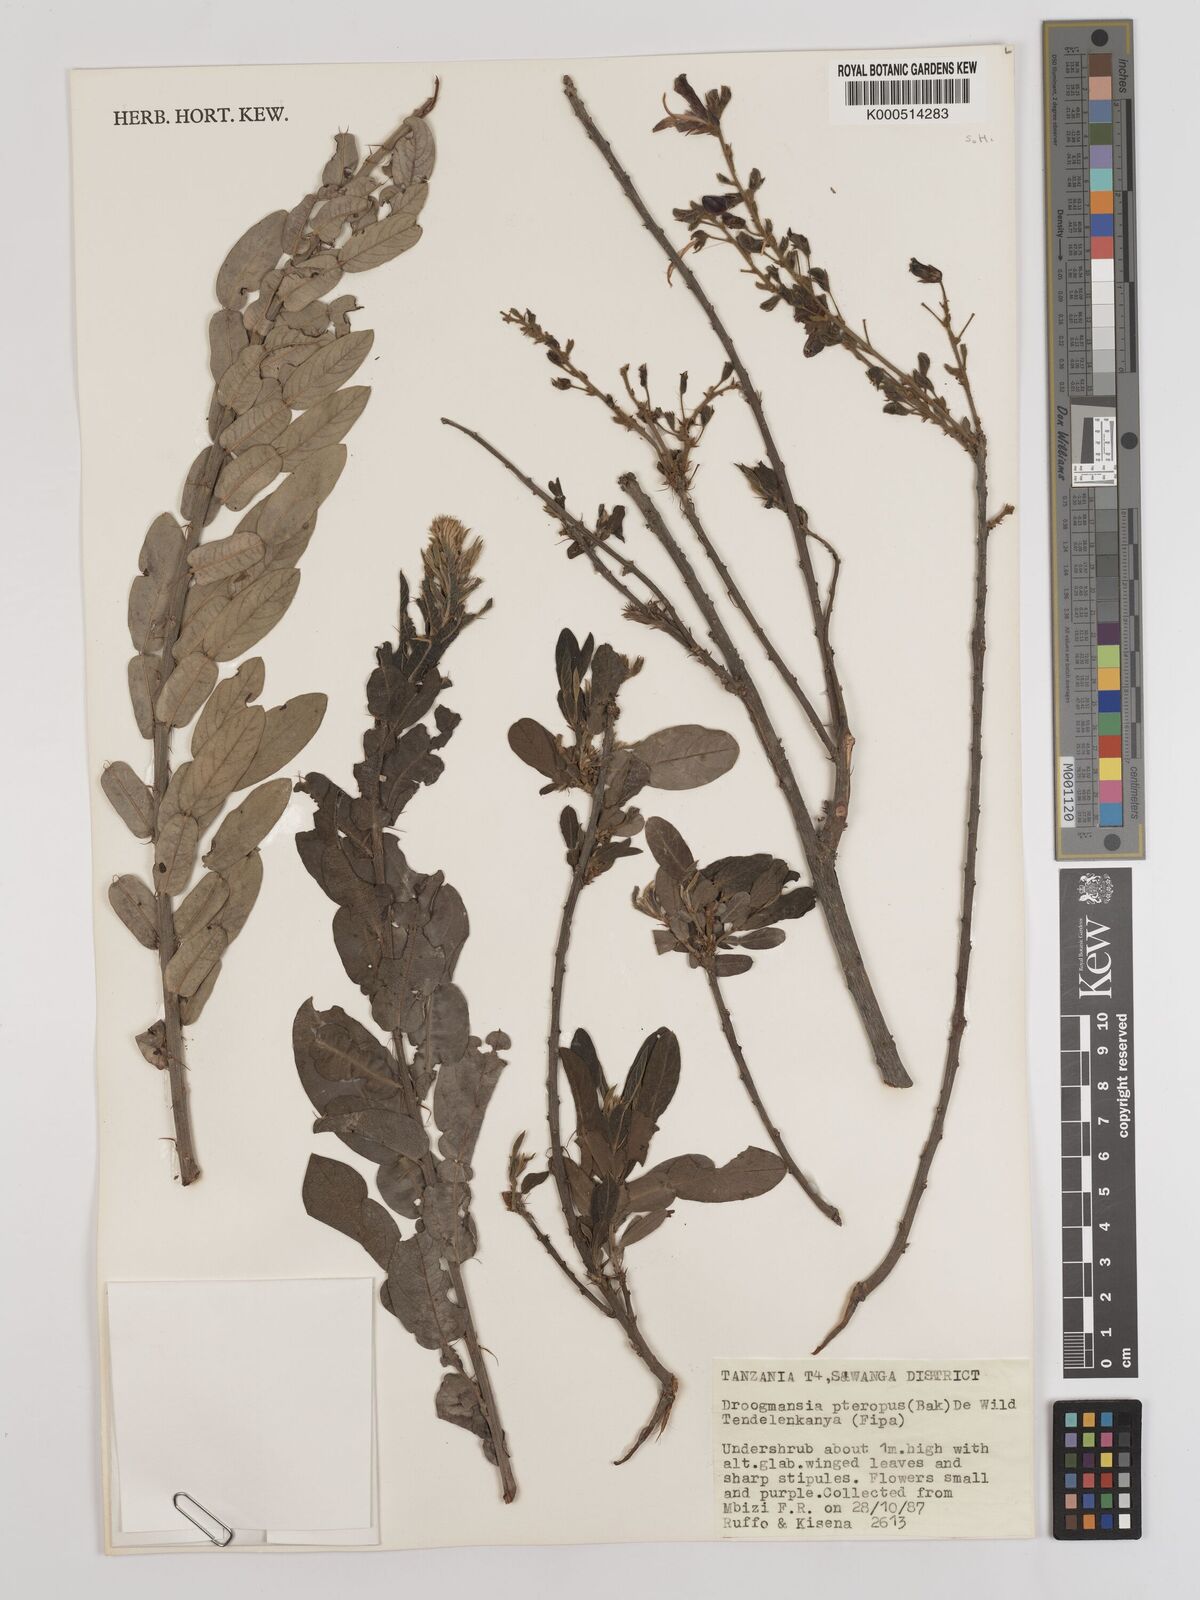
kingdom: Plantae
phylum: Tracheophyta
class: Magnoliopsida
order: Fabales
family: Fabaceae
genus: Droogmansia
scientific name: Droogmansia
